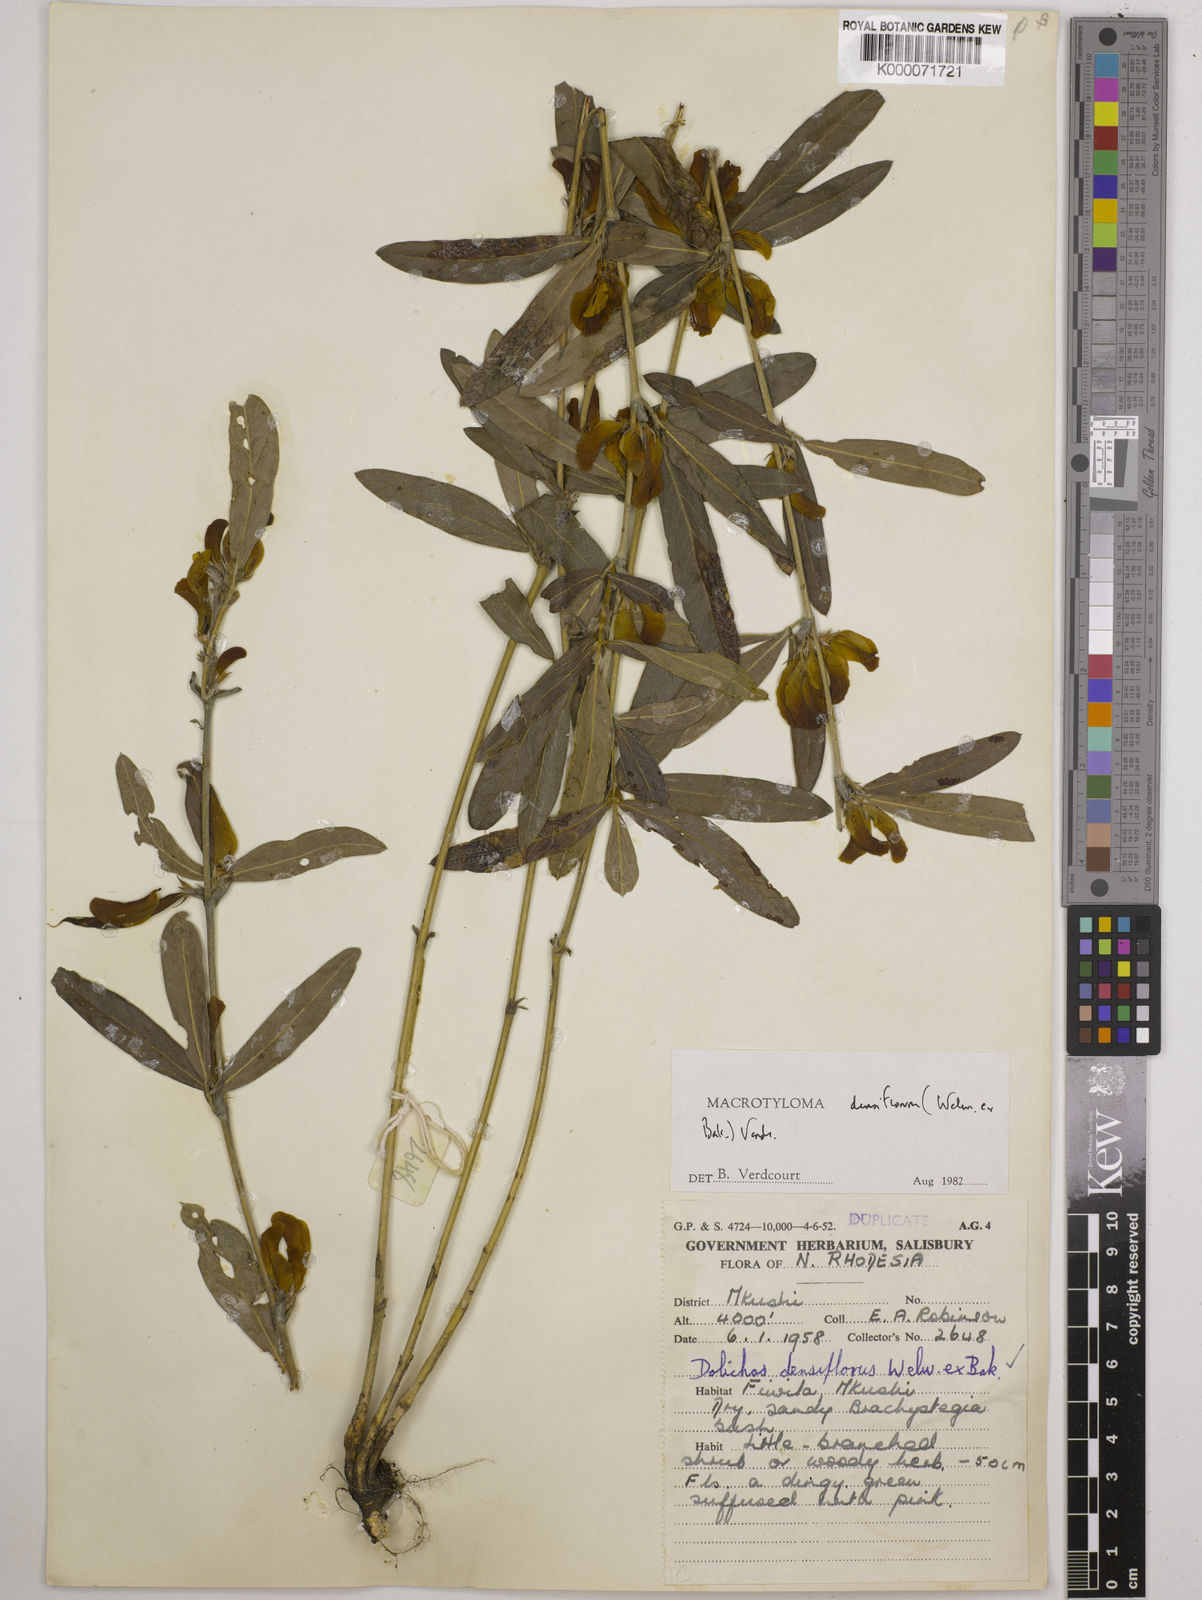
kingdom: Plantae
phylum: Tracheophyta
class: Magnoliopsida
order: Fabales
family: Fabaceae
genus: Macrotyloma
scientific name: Macrotyloma densiflorum
